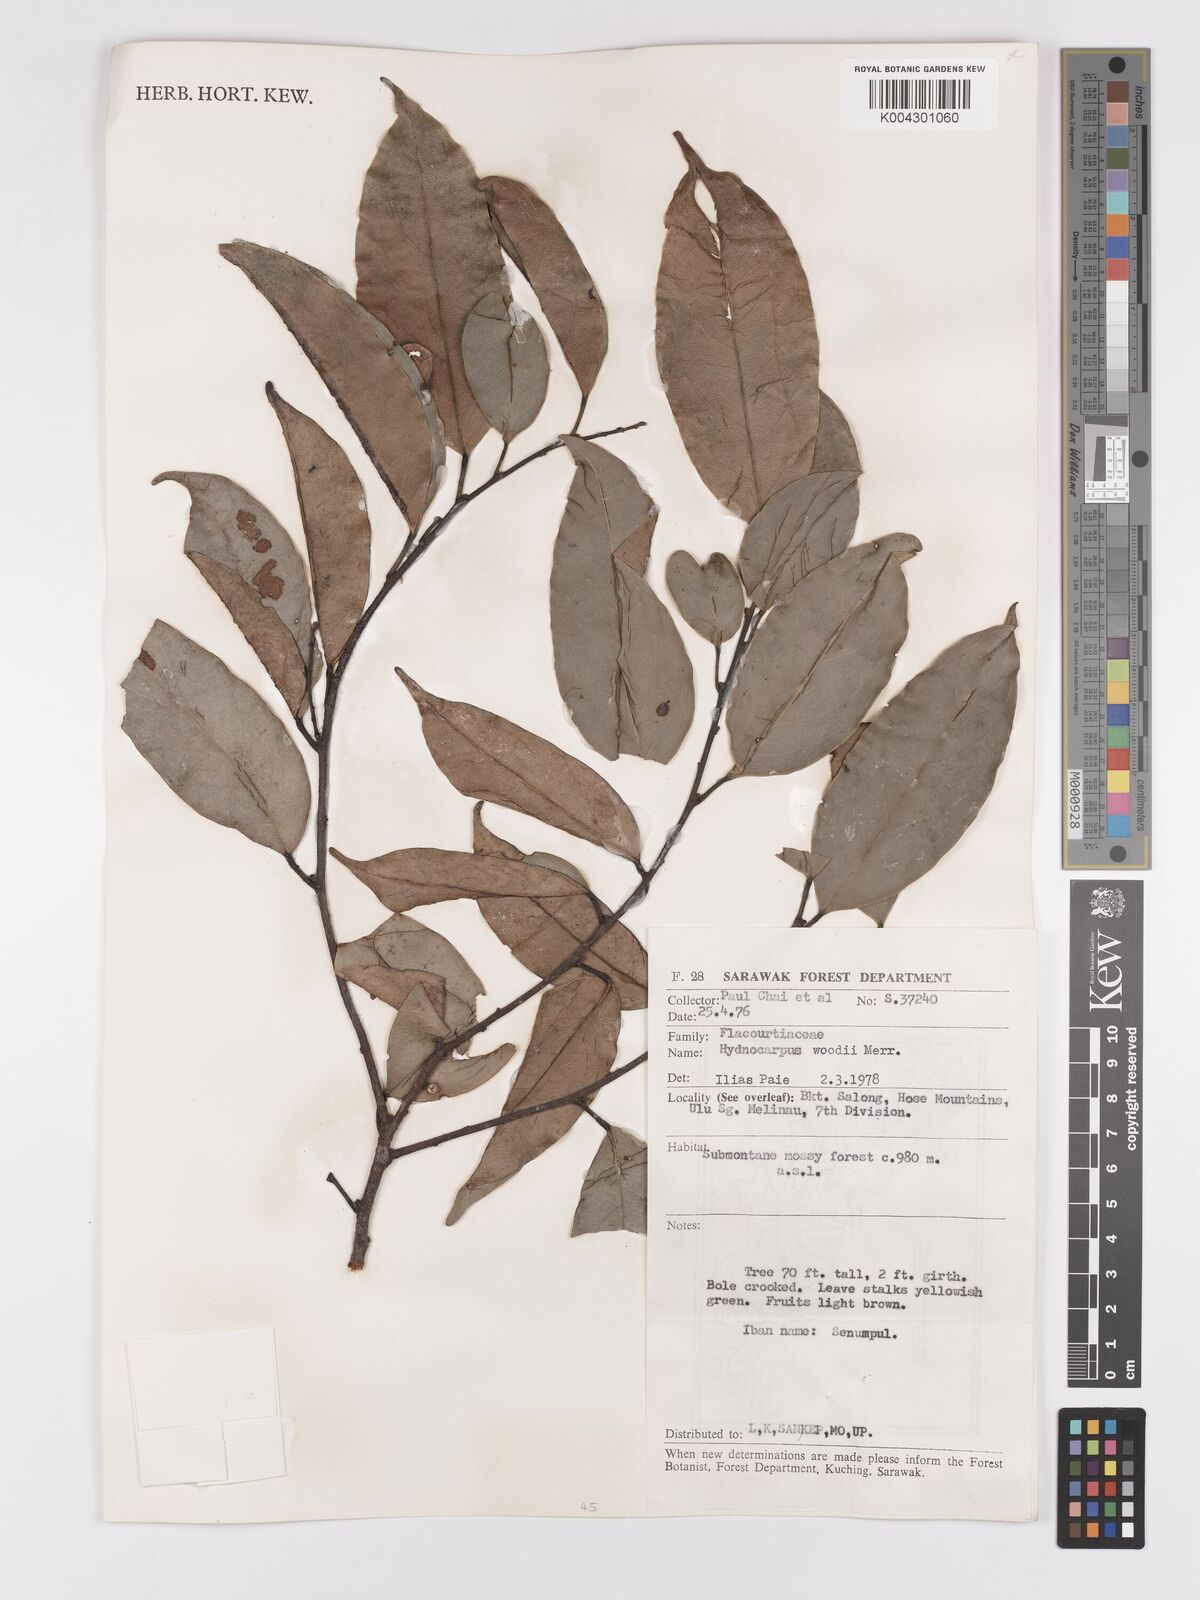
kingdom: Plantae
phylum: Tracheophyta
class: Magnoliopsida
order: Malpighiales
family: Achariaceae
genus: Hydnocarpus
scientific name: Hydnocarpus woodii
